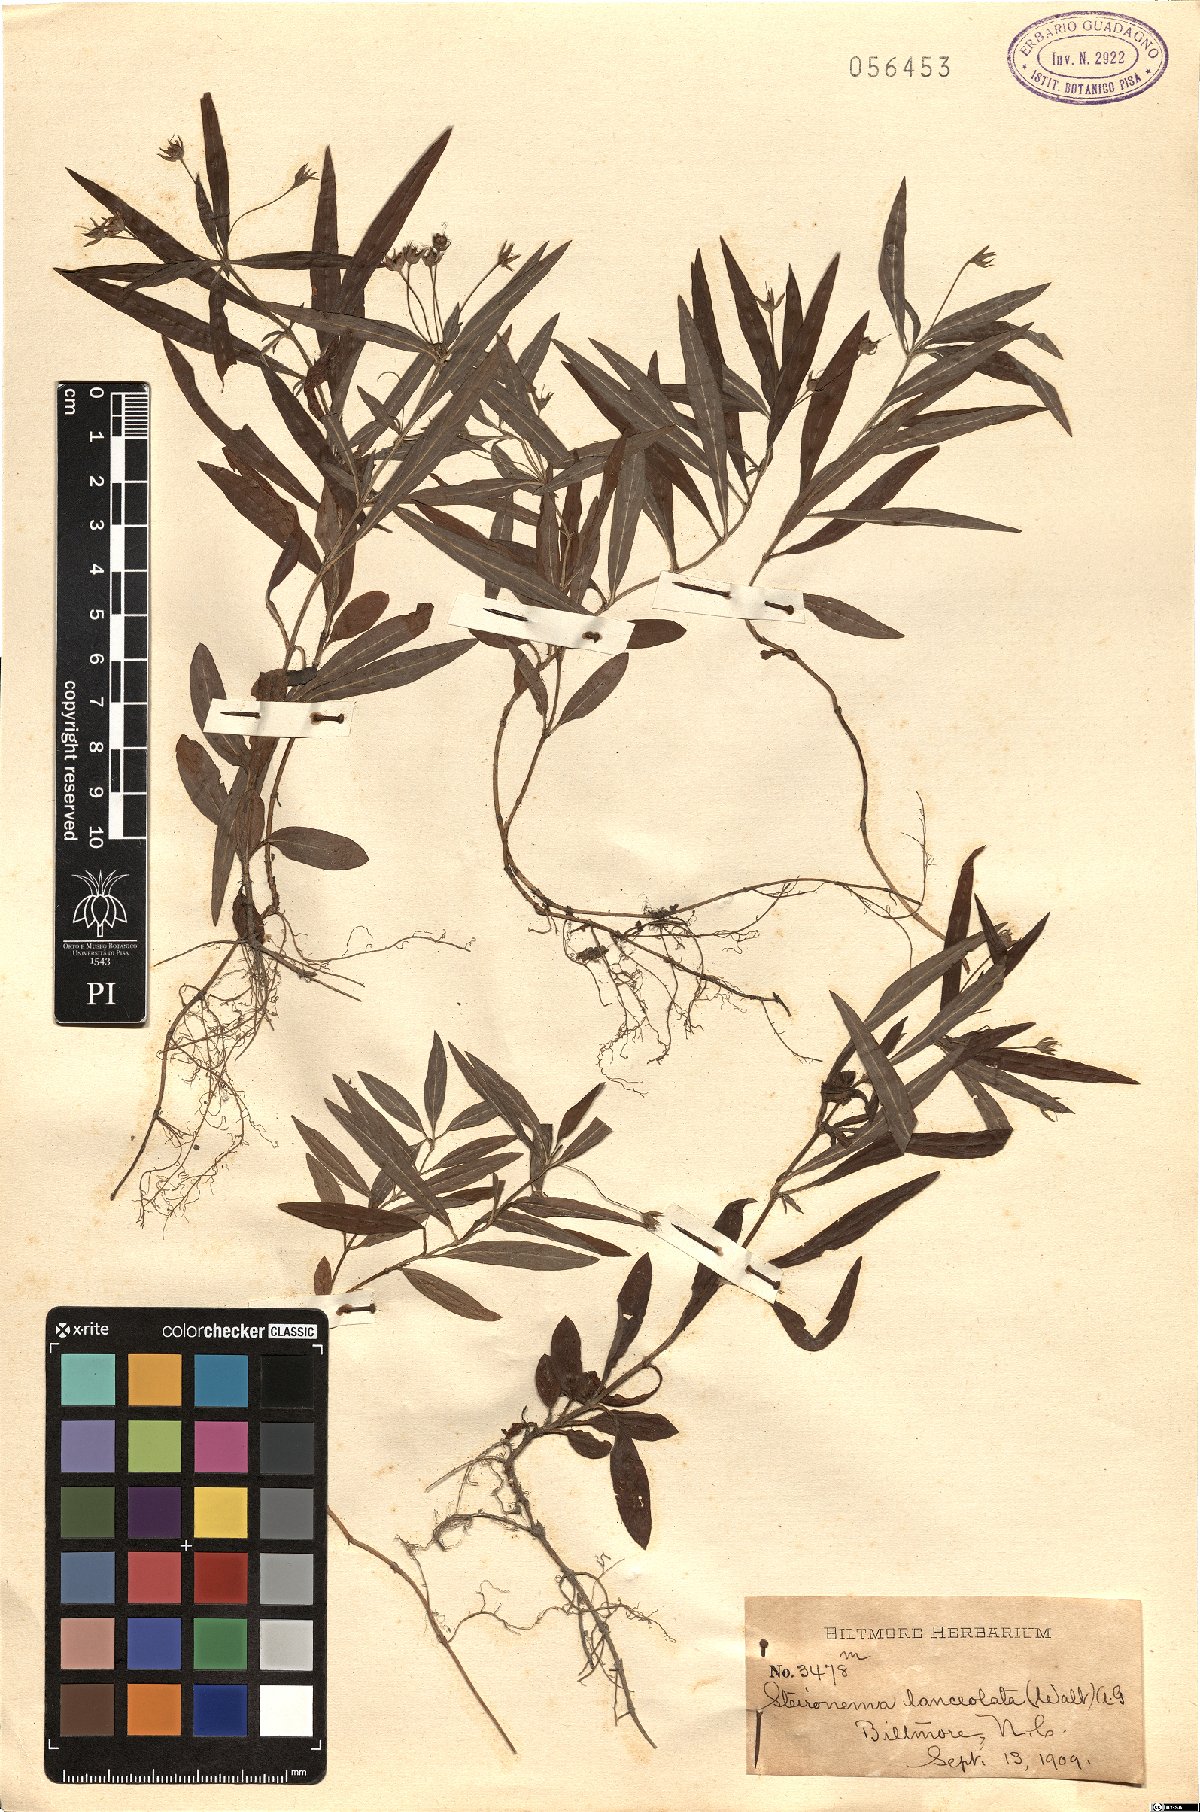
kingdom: Plantae
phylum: Tracheophyta
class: Magnoliopsida
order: Ericales
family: Primulaceae
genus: Lysimachia
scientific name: Lysimachia lanceolata
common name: Lance-leaved loosestrife
